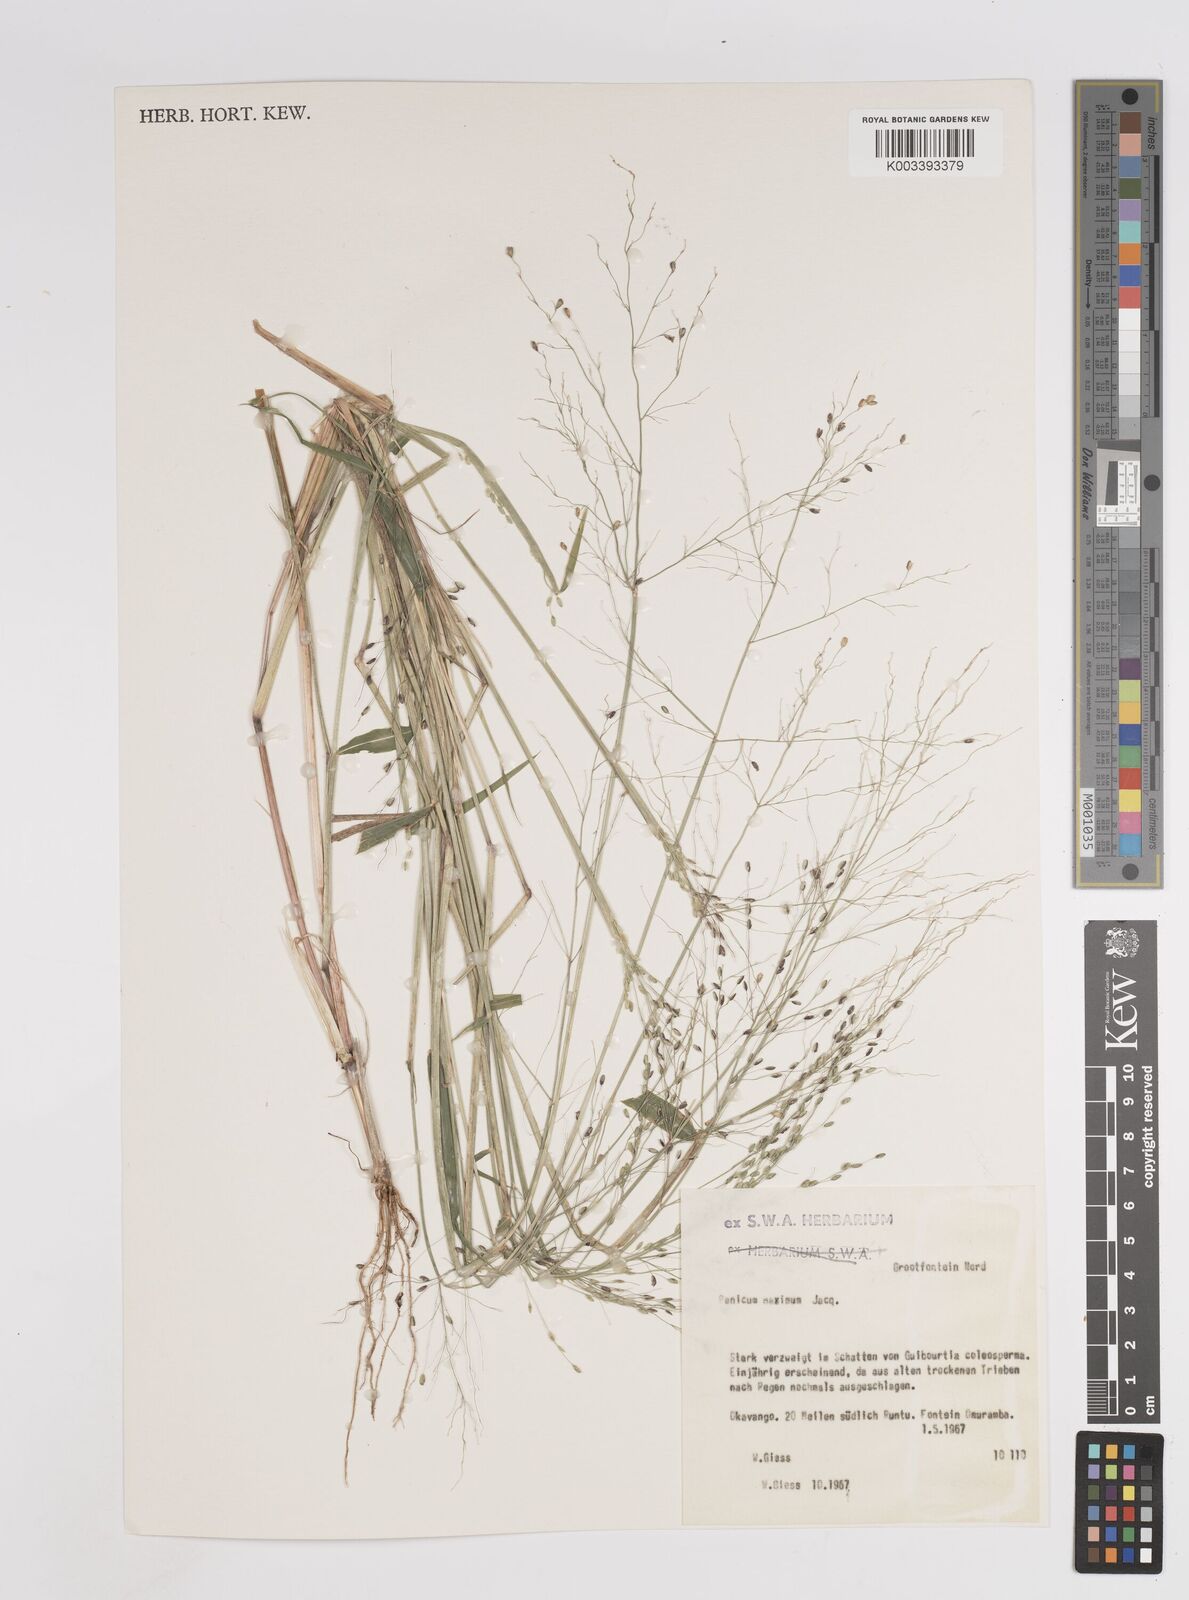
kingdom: Plantae
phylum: Tracheophyta
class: Liliopsida
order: Poales
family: Poaceae
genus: Megathyrsus
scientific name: Megathyrsus maximus
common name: Guineagrass
